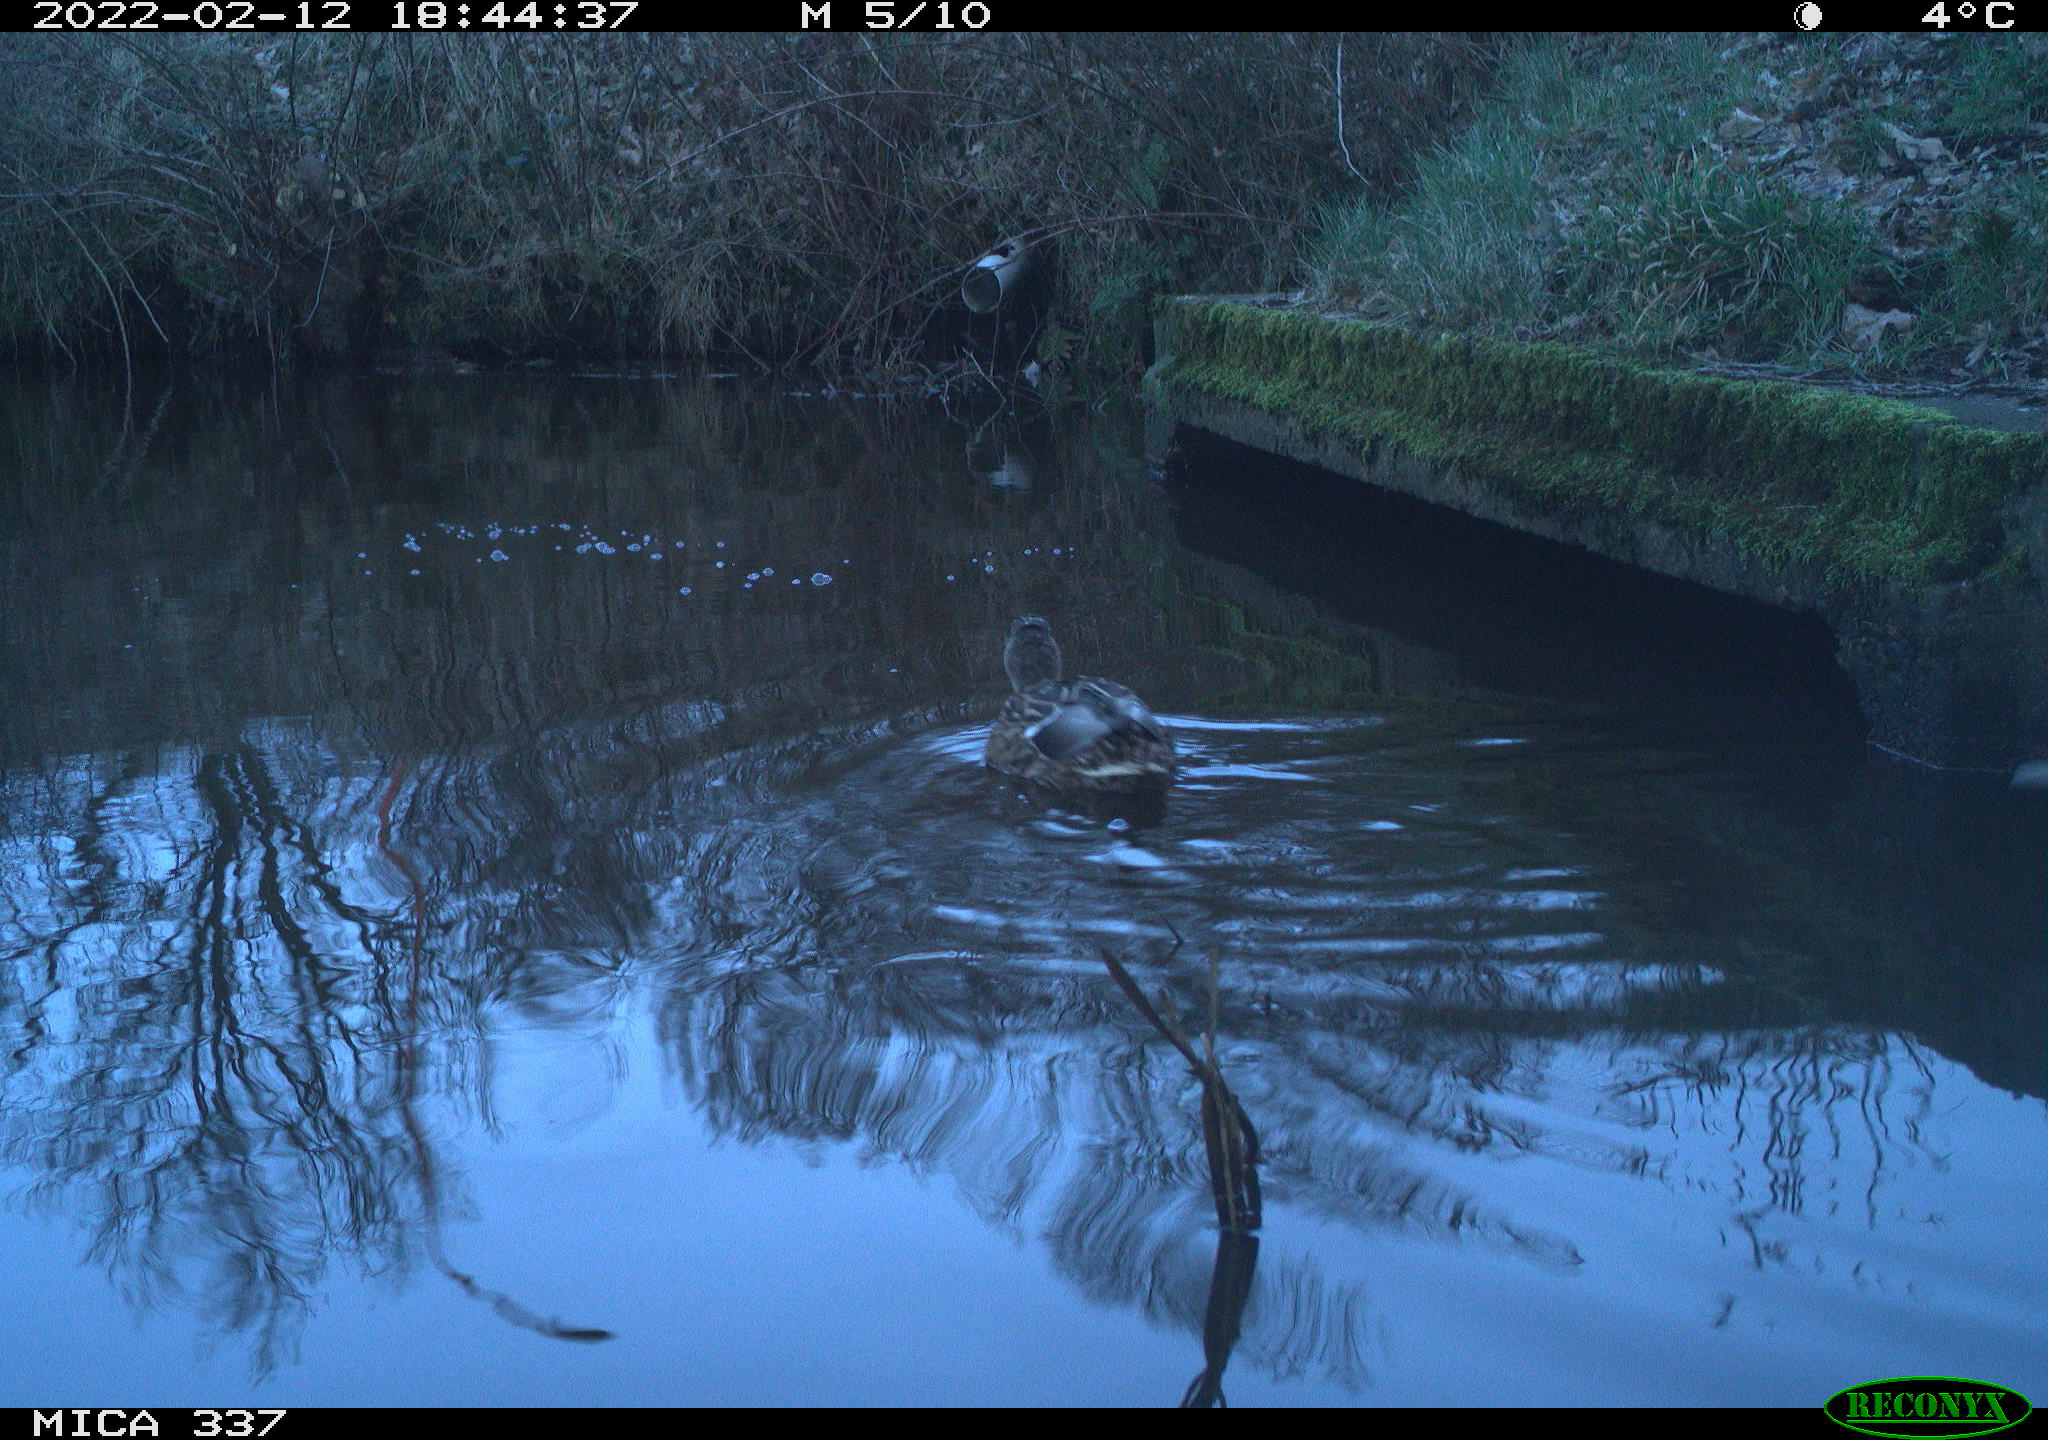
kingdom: Animalia
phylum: Chordata
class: Aves
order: Anseriformes
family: Anatidae
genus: Anas
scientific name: Anas platyrhynchos
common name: Mallard
